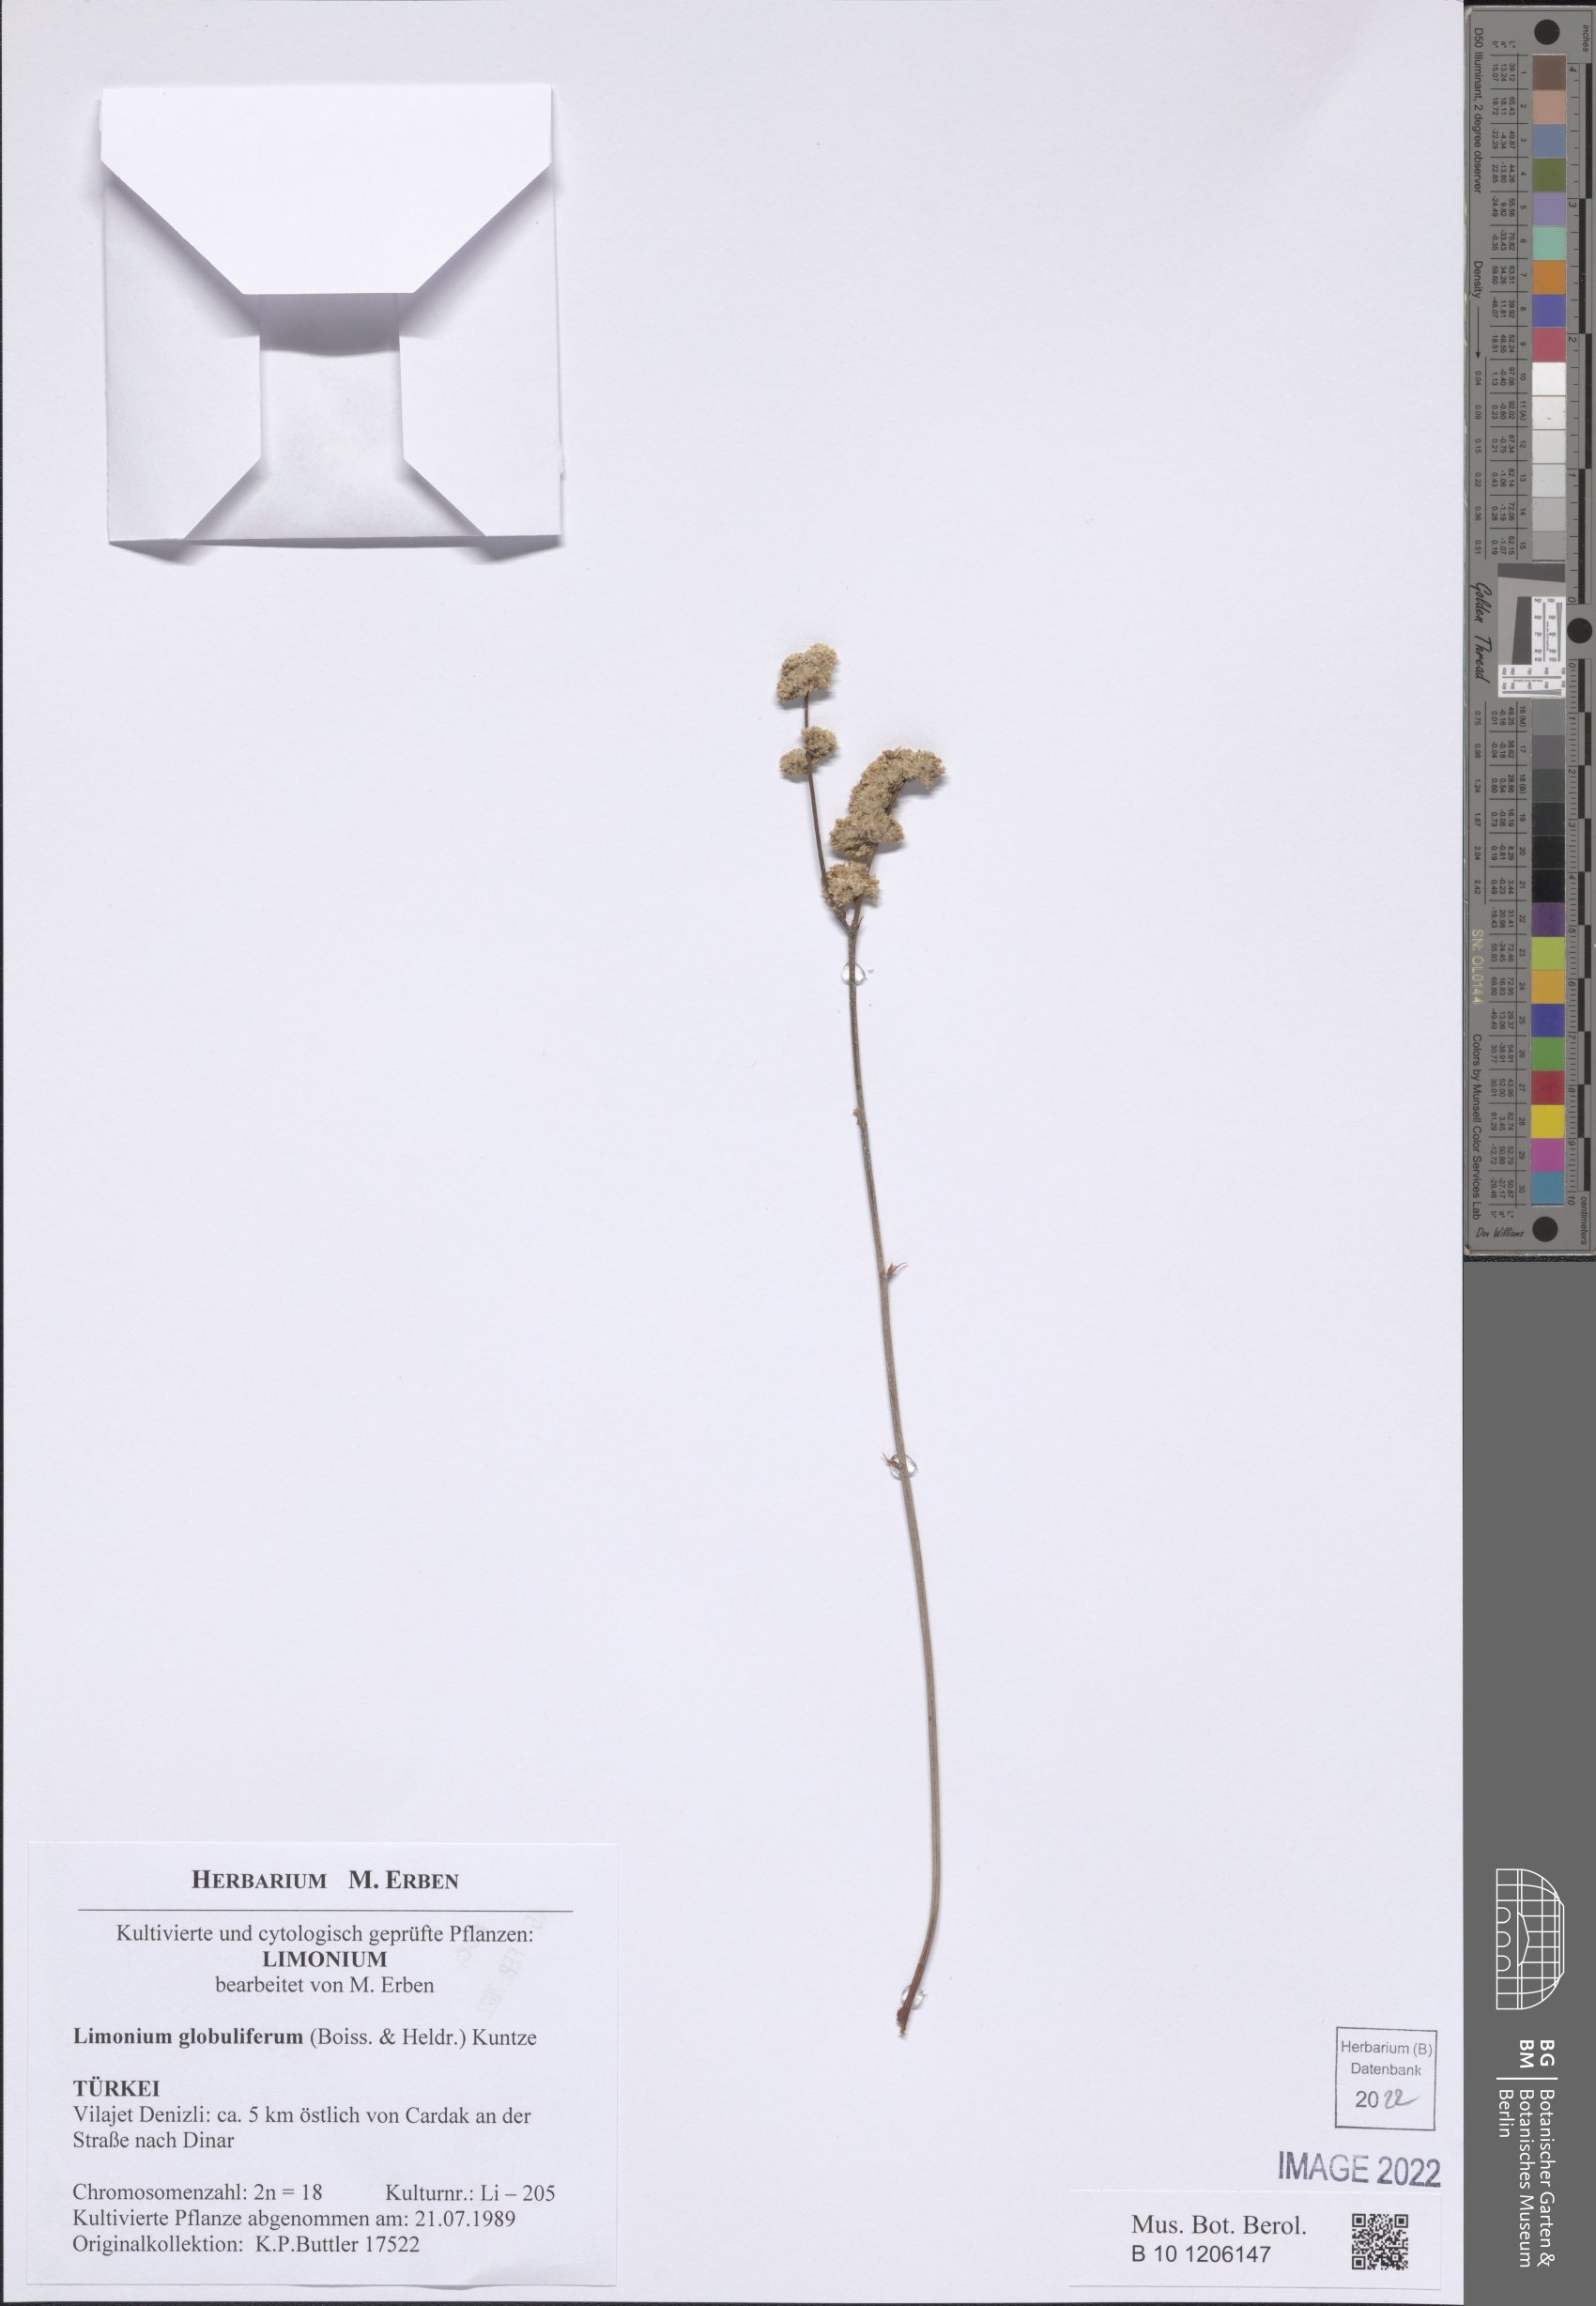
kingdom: Plantae
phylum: Tracheophyta
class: Magnoliopsida
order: Caryophyllales
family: Plumbaginaceae
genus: Limonium
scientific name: Limonium globuliferum
